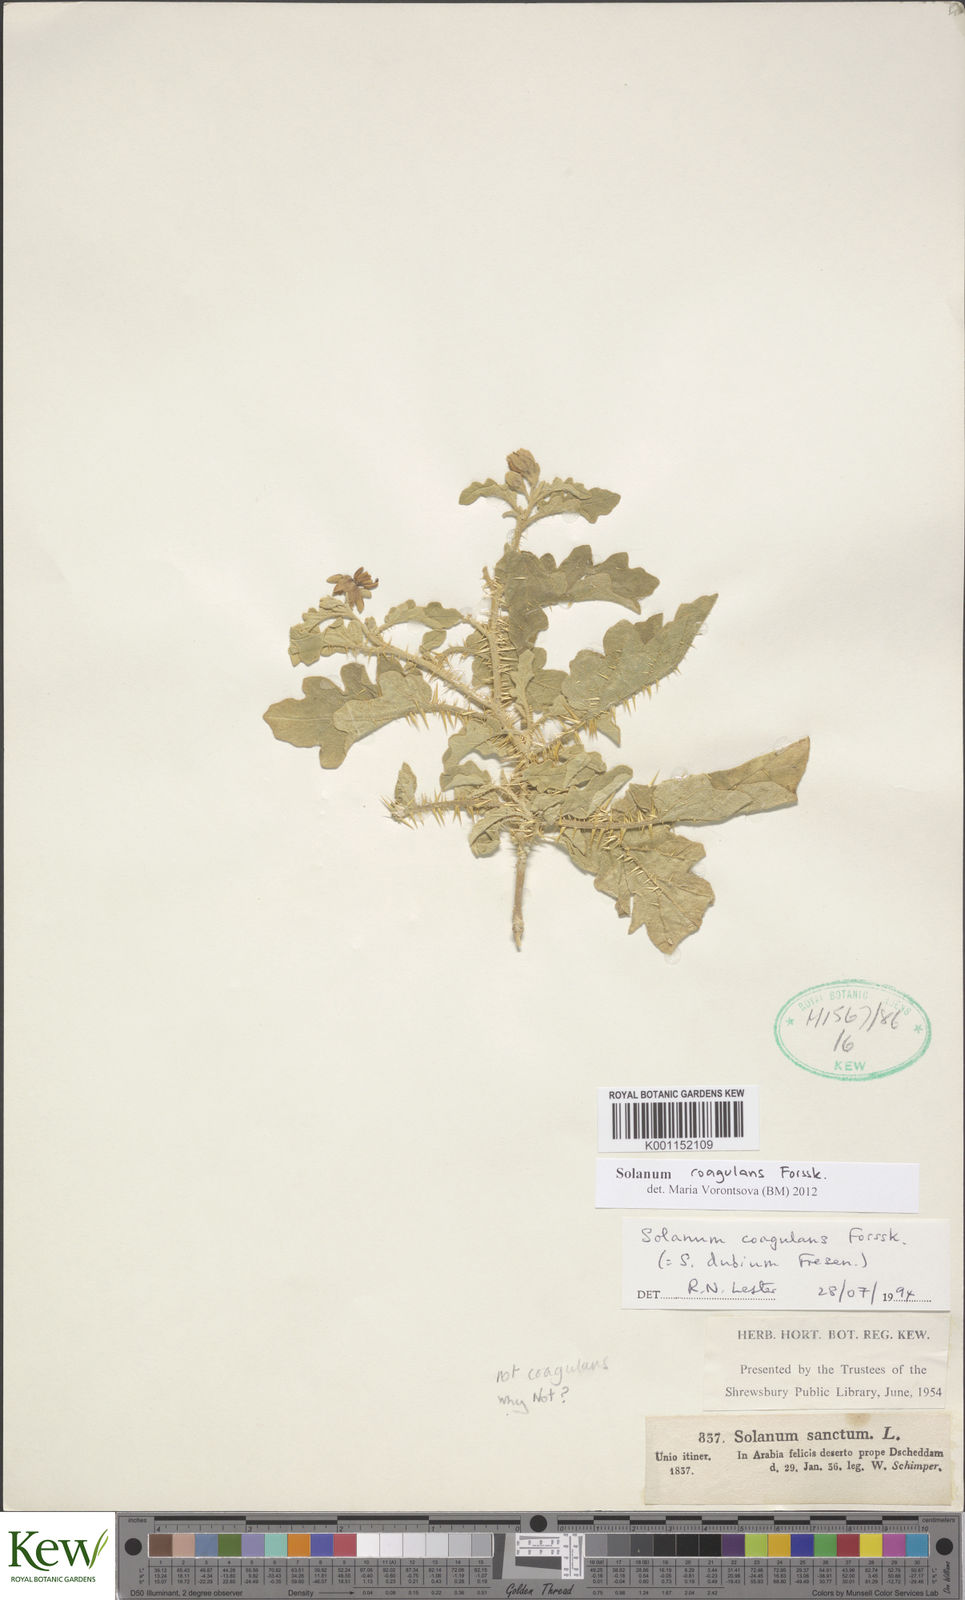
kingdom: Plantae
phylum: Tracheophyta
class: Magnoliopsida
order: Solanales
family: Solanaceae
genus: Solanum
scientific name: Solanum coagulans
